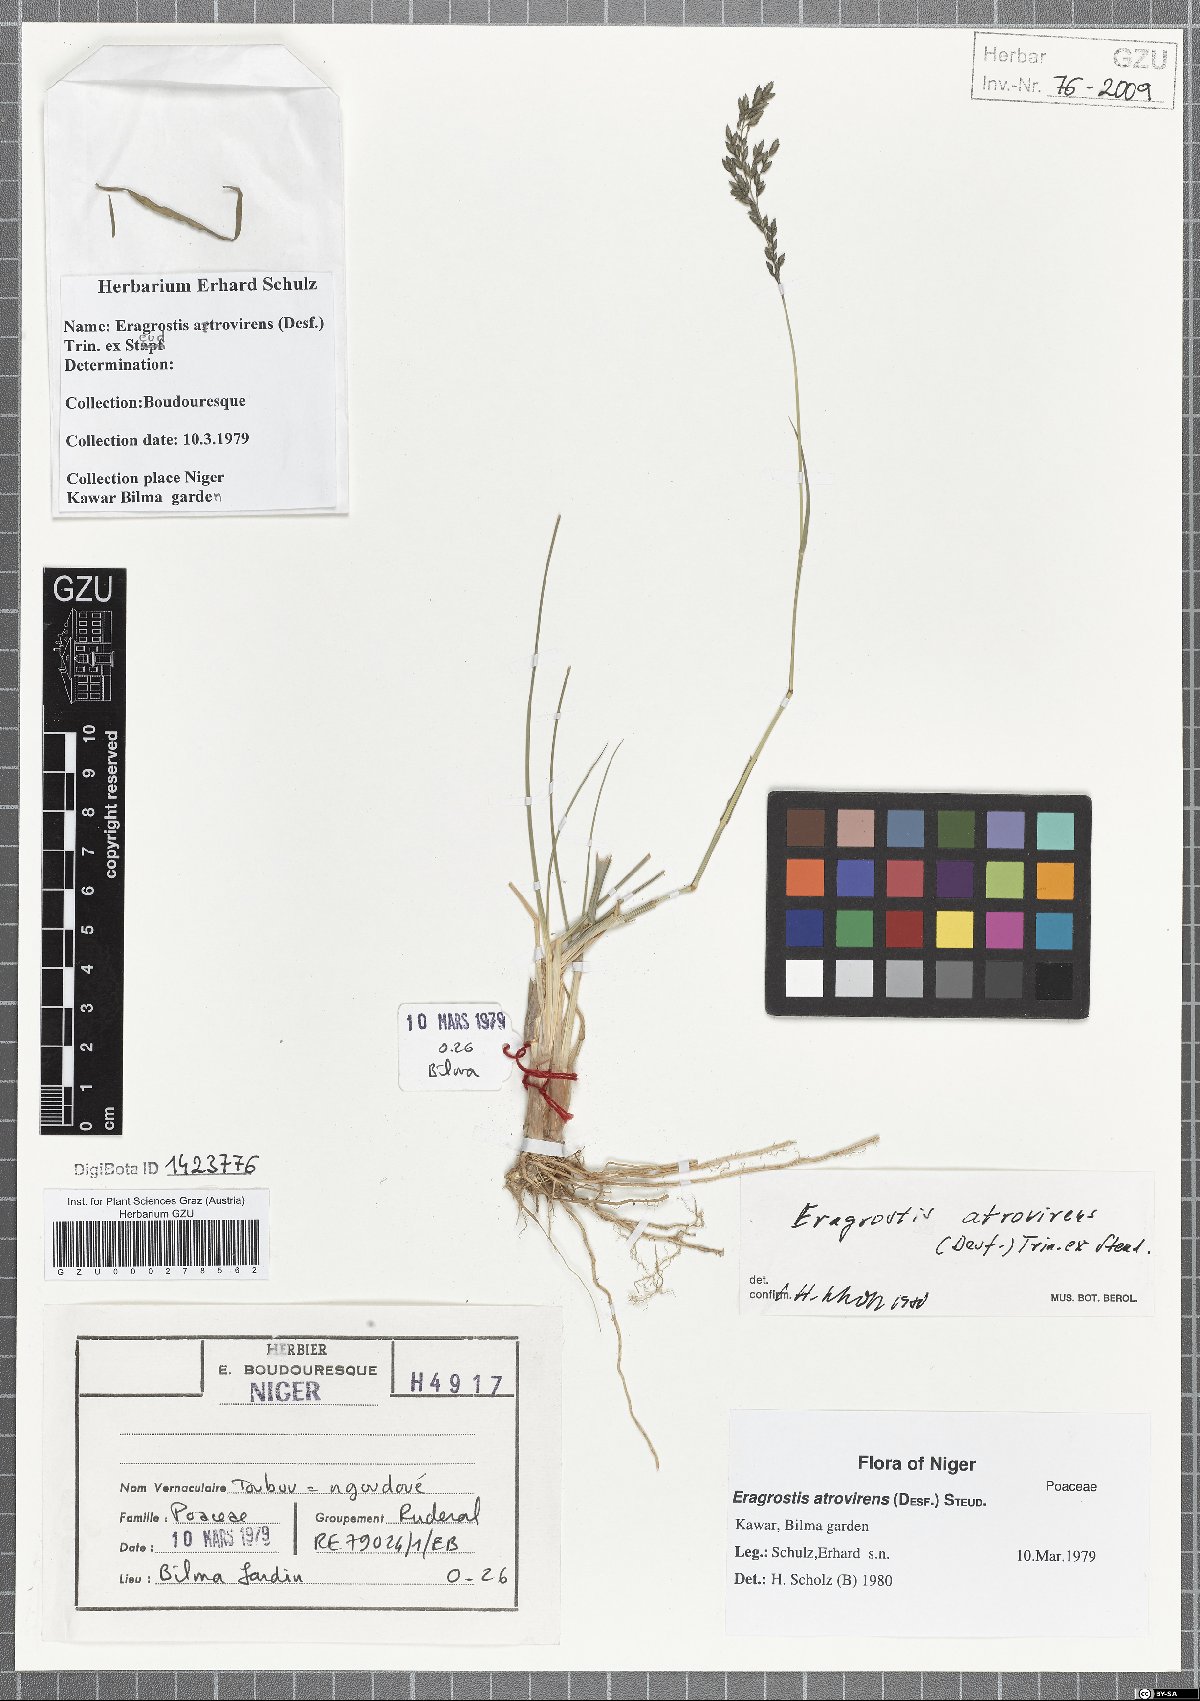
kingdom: Plantae
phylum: Tracheophyta
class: Liliopsida
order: Poales
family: Poaceae
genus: Eragrostis
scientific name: Eragrostis atrovirens
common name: Thalia lovegrass
